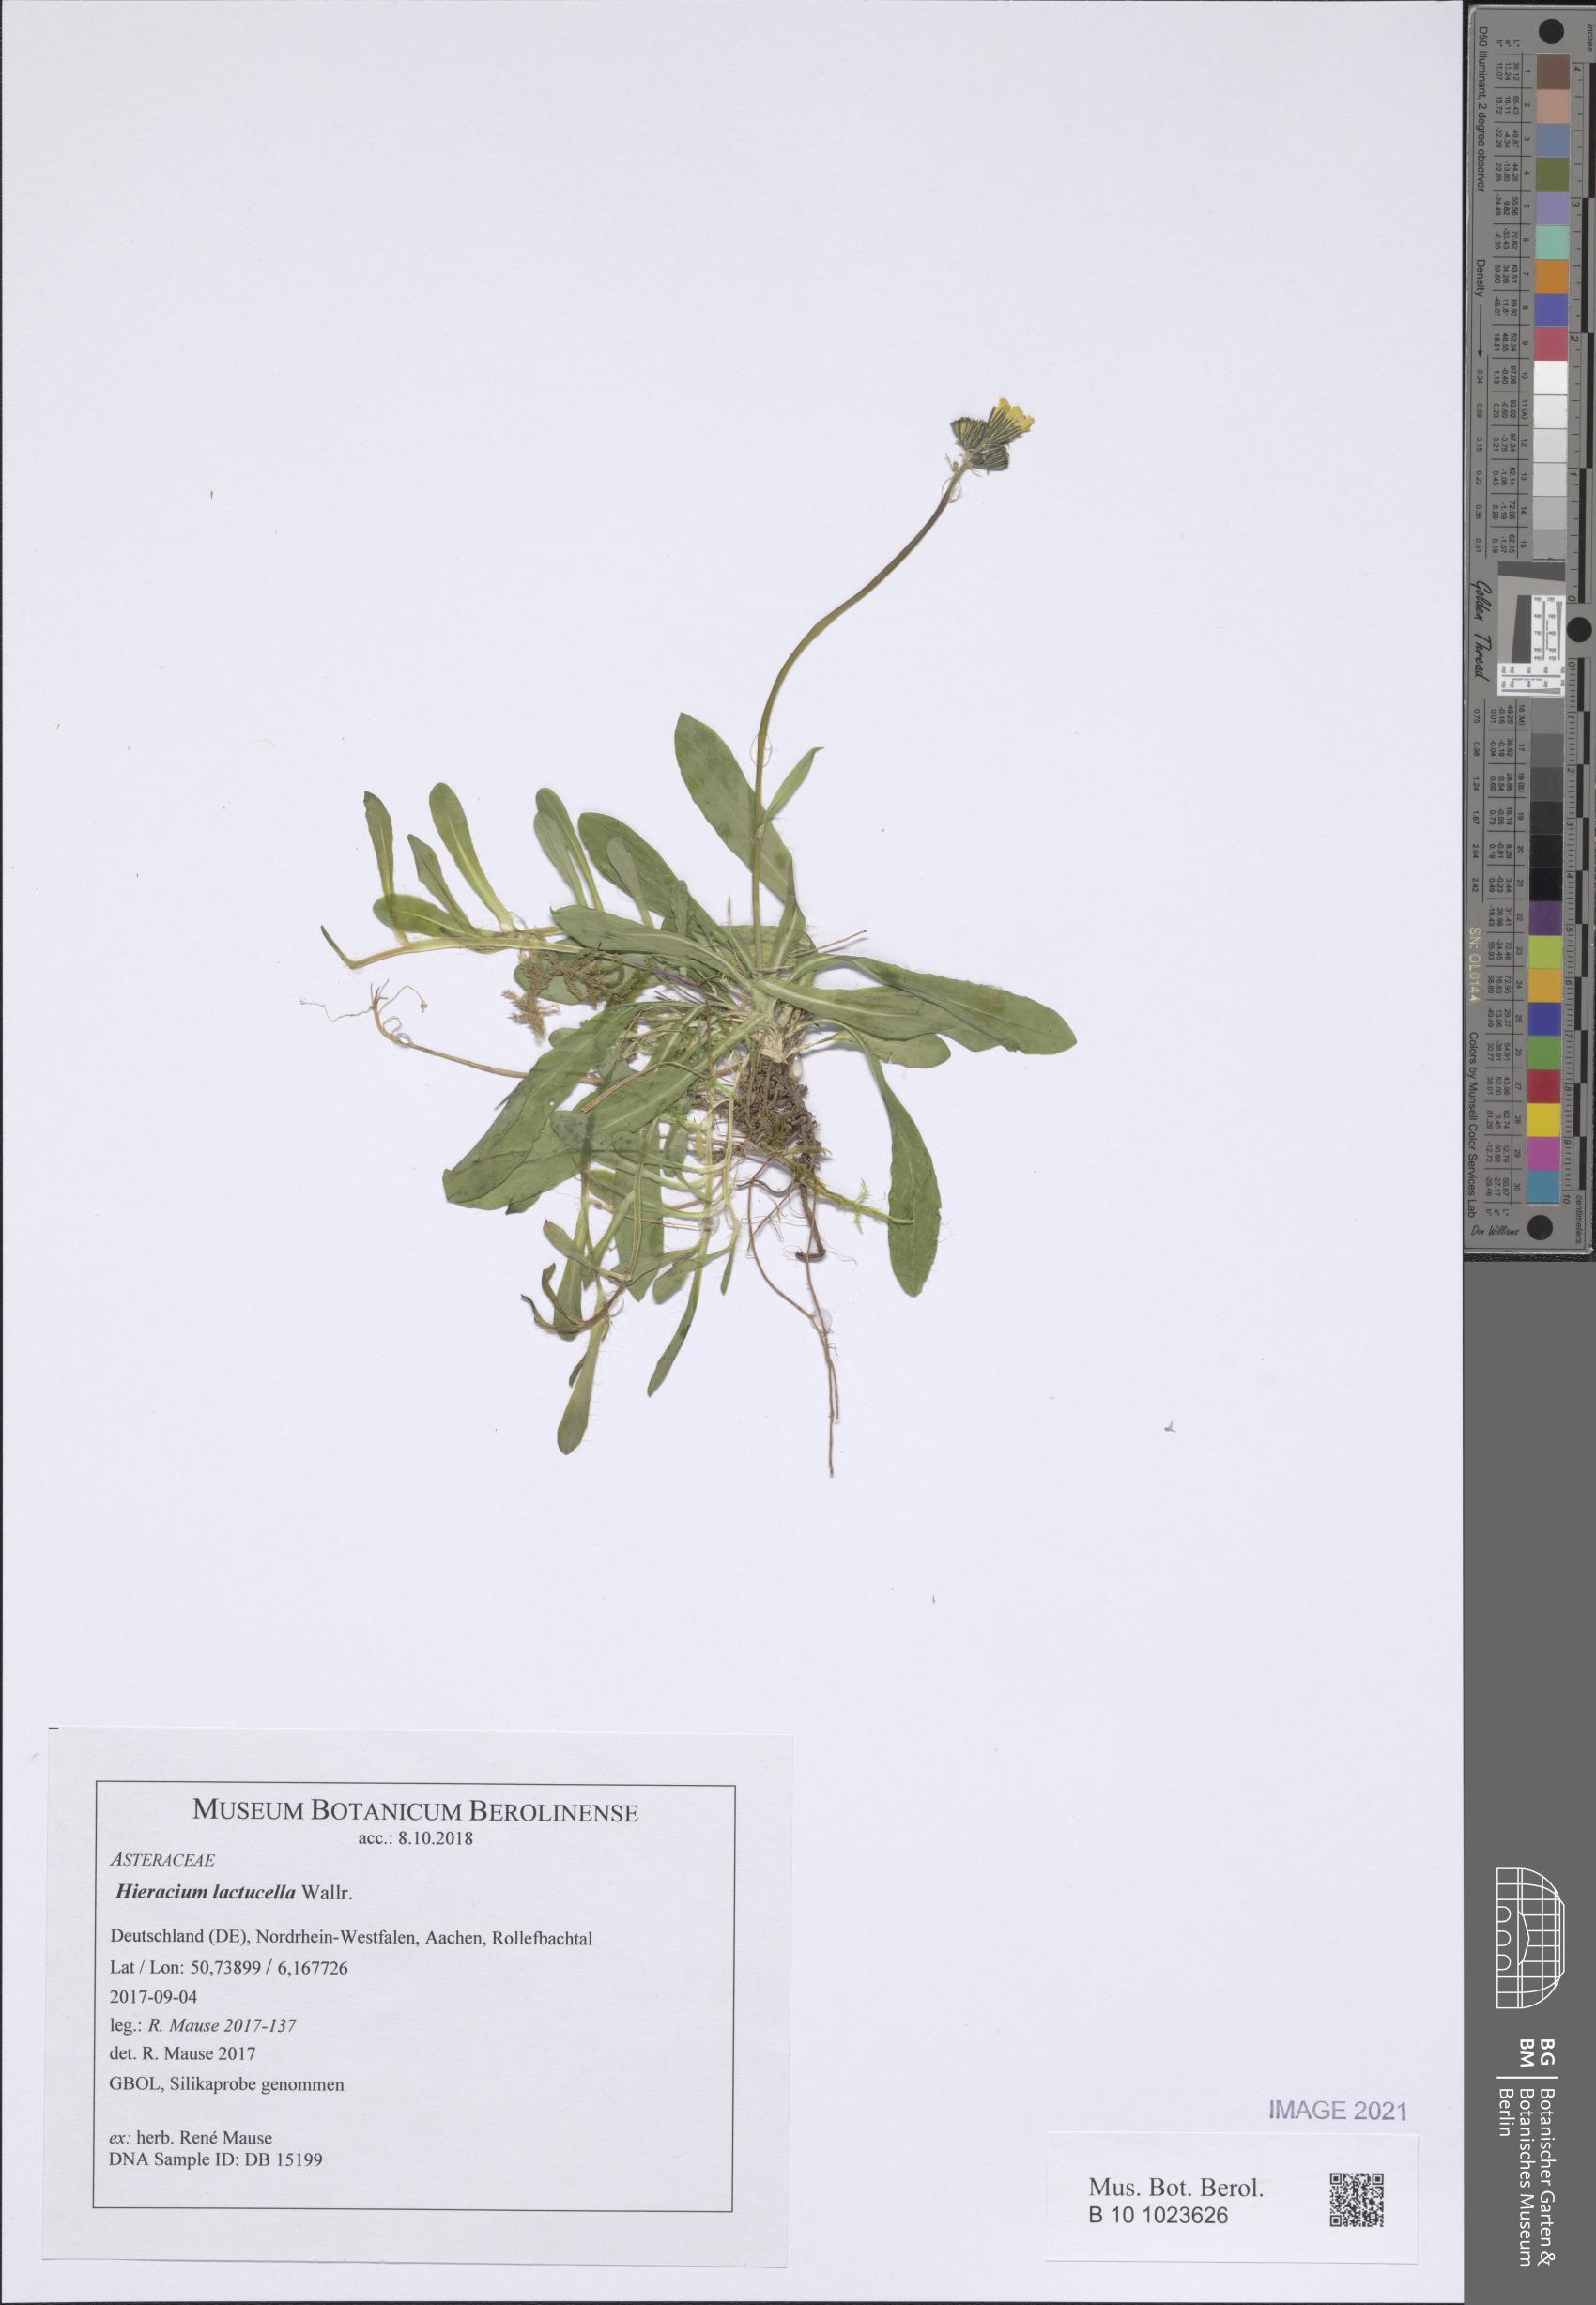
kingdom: Plantae
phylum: Tracheophyta
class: Magnoliopsida
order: Asterales
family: Asteraceae
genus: Pilosella
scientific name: Pilosella lactucella
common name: Glaucous fox-and-cubs
